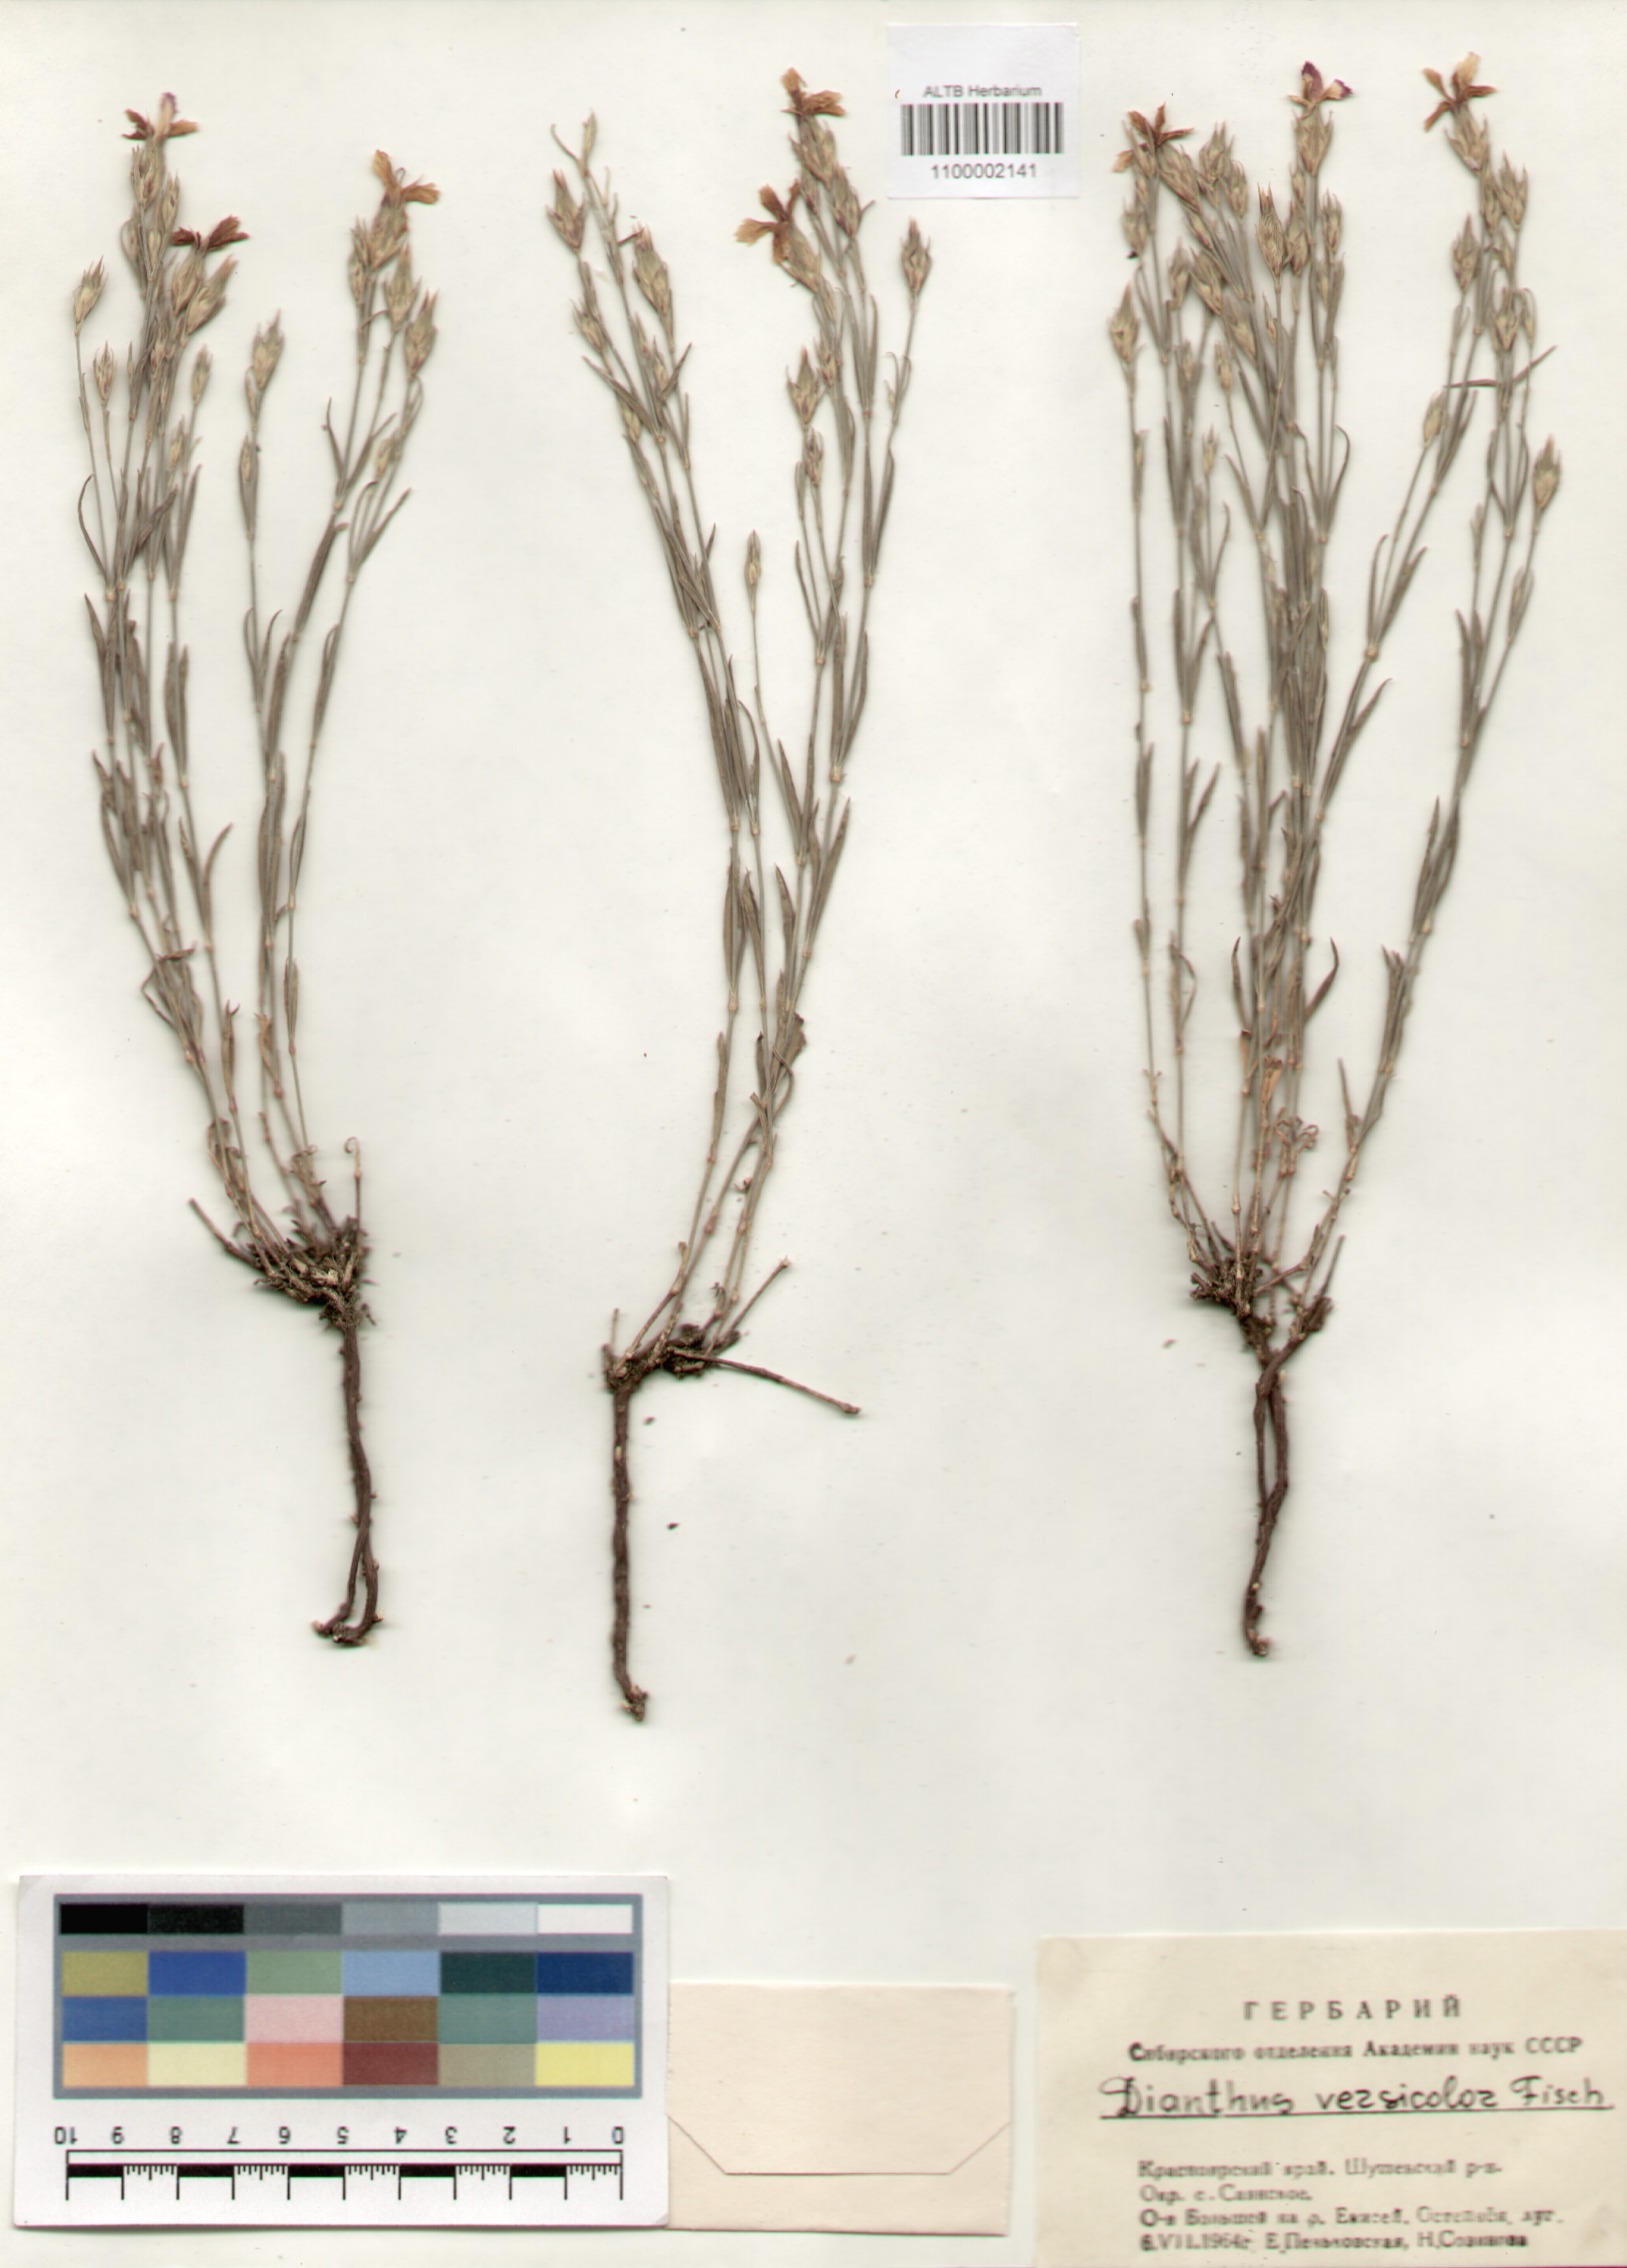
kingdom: Plantae
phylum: Tracheophyta
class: Magnoliopsida
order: Caryophyllales
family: Caryophyllaceae
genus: Dianthus
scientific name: Dianthus chinensis
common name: Rainbow pink
